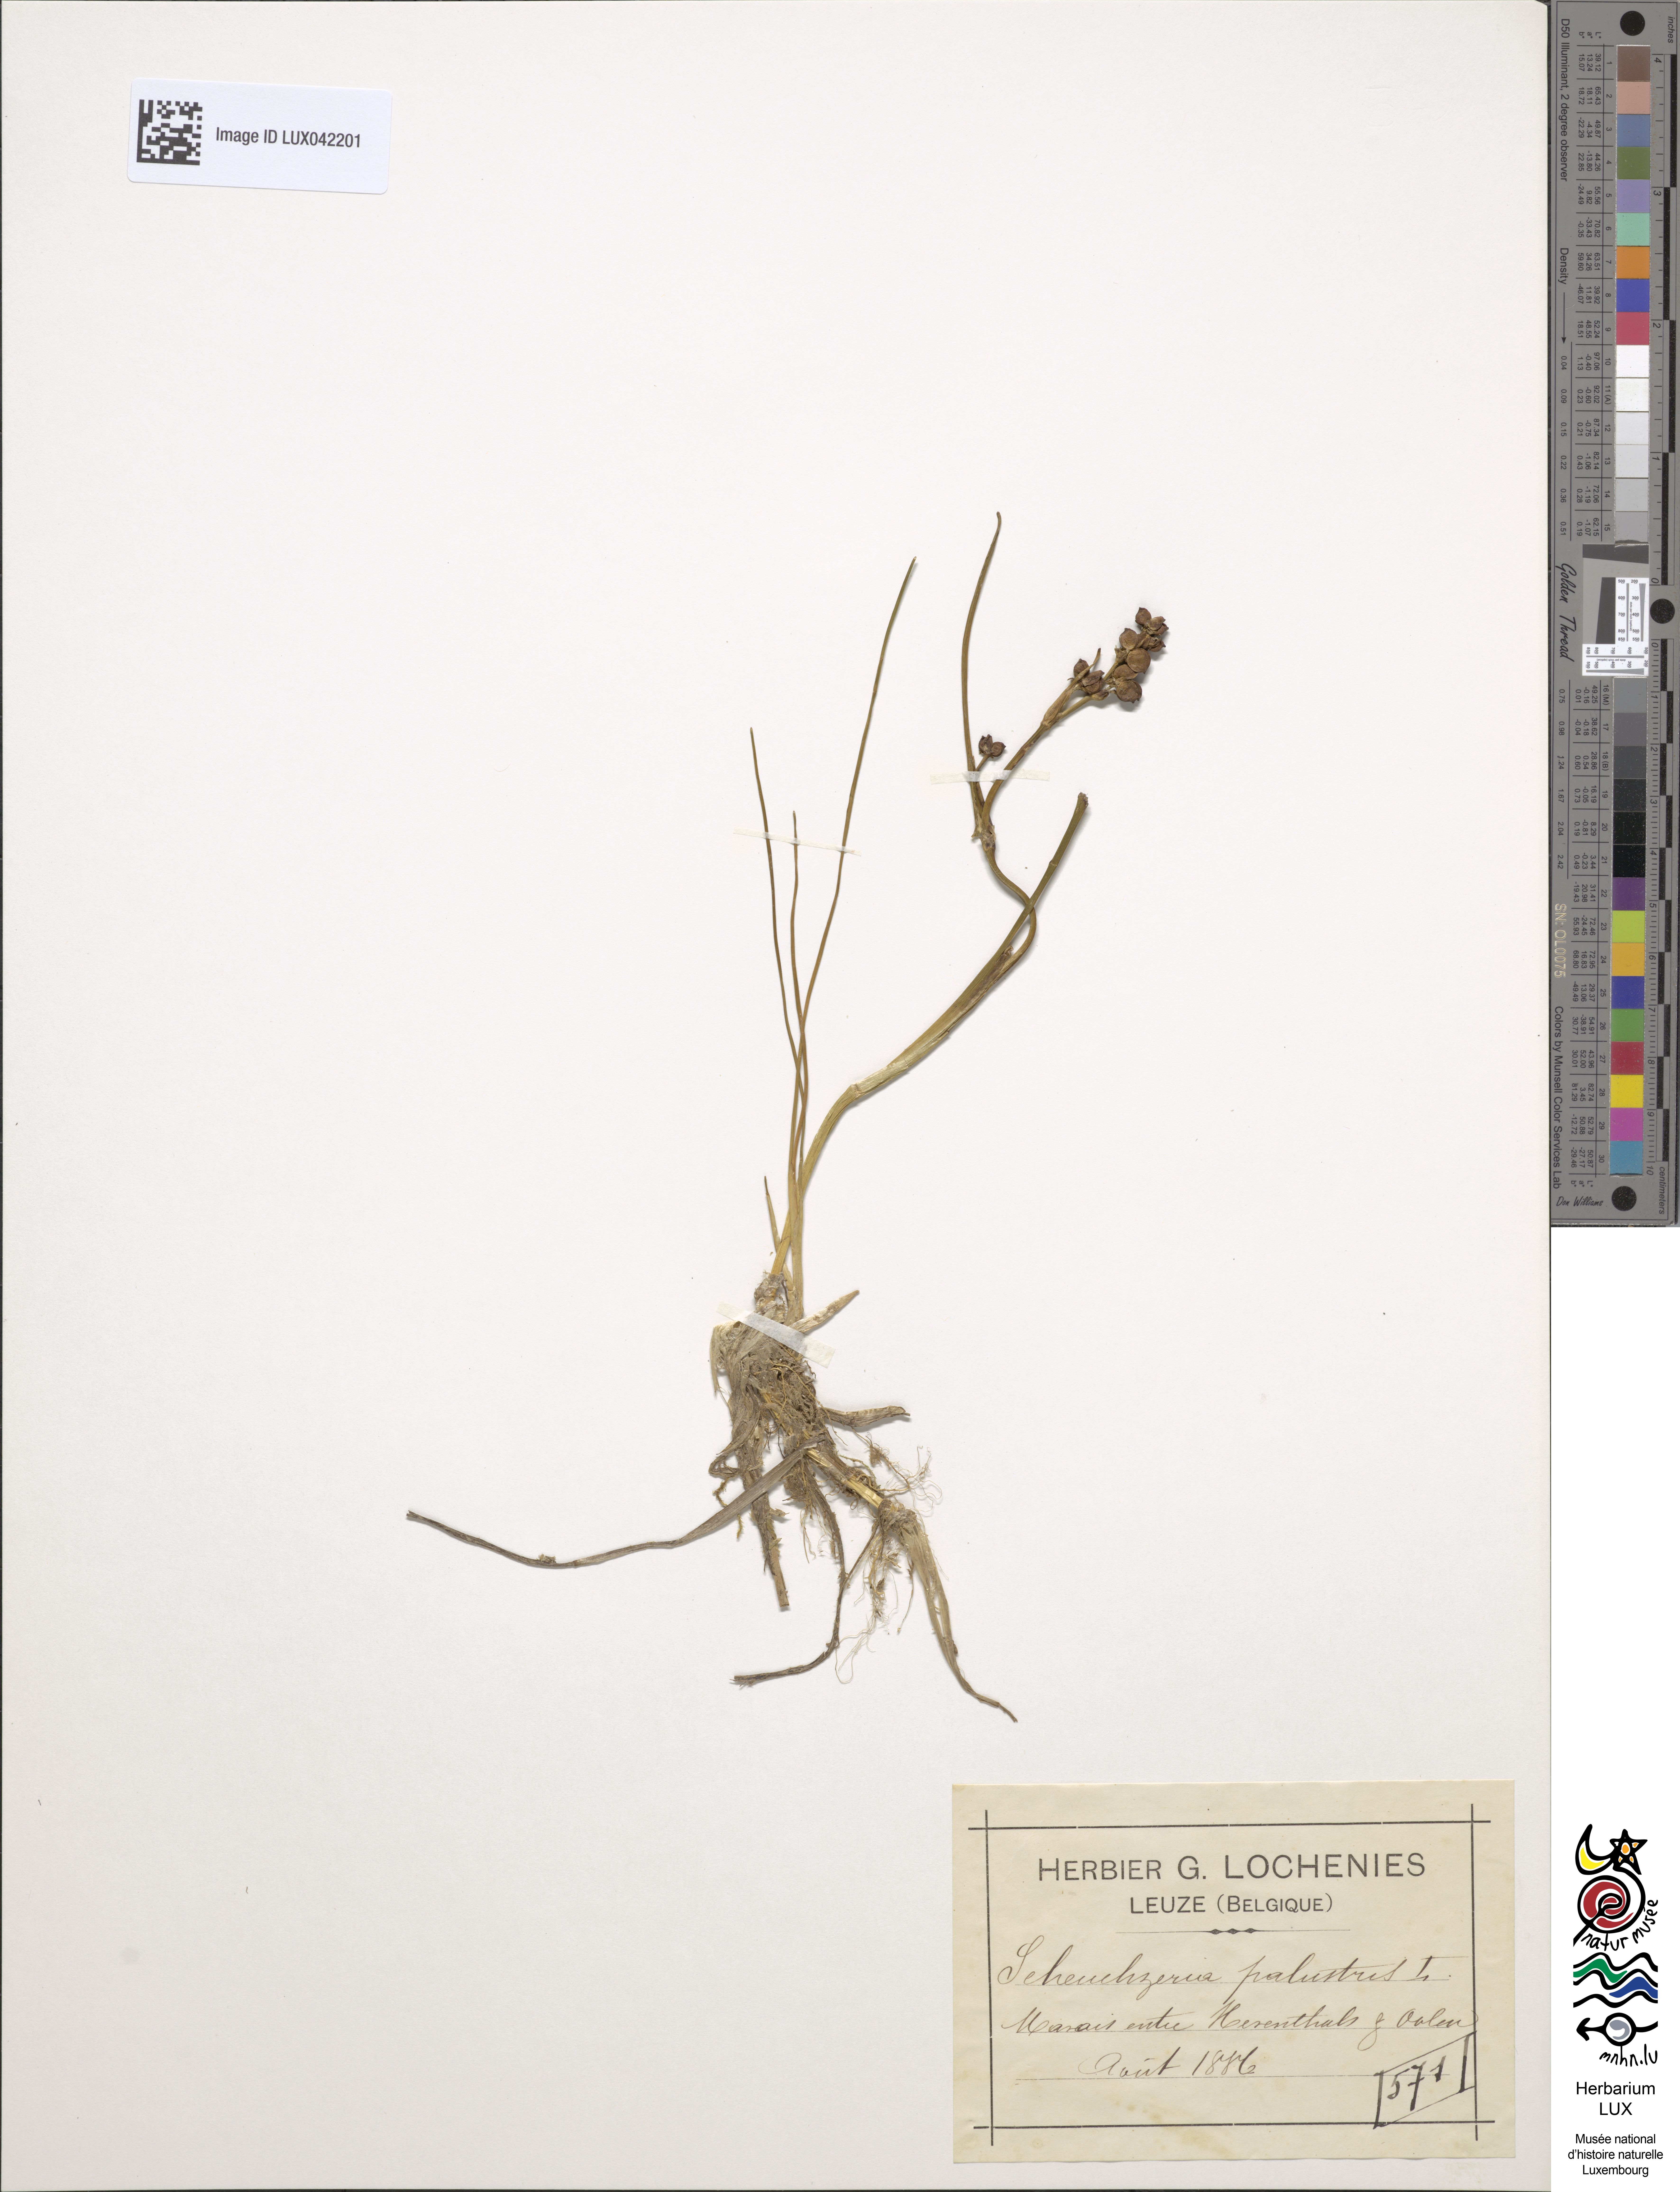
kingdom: Plantae
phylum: Tracheophyta
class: Liliopsida
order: Alismatales
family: Scheuchzeriaceae
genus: Scheuchzeria
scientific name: Scheuchzeria palustris
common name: Rannoch-rush
